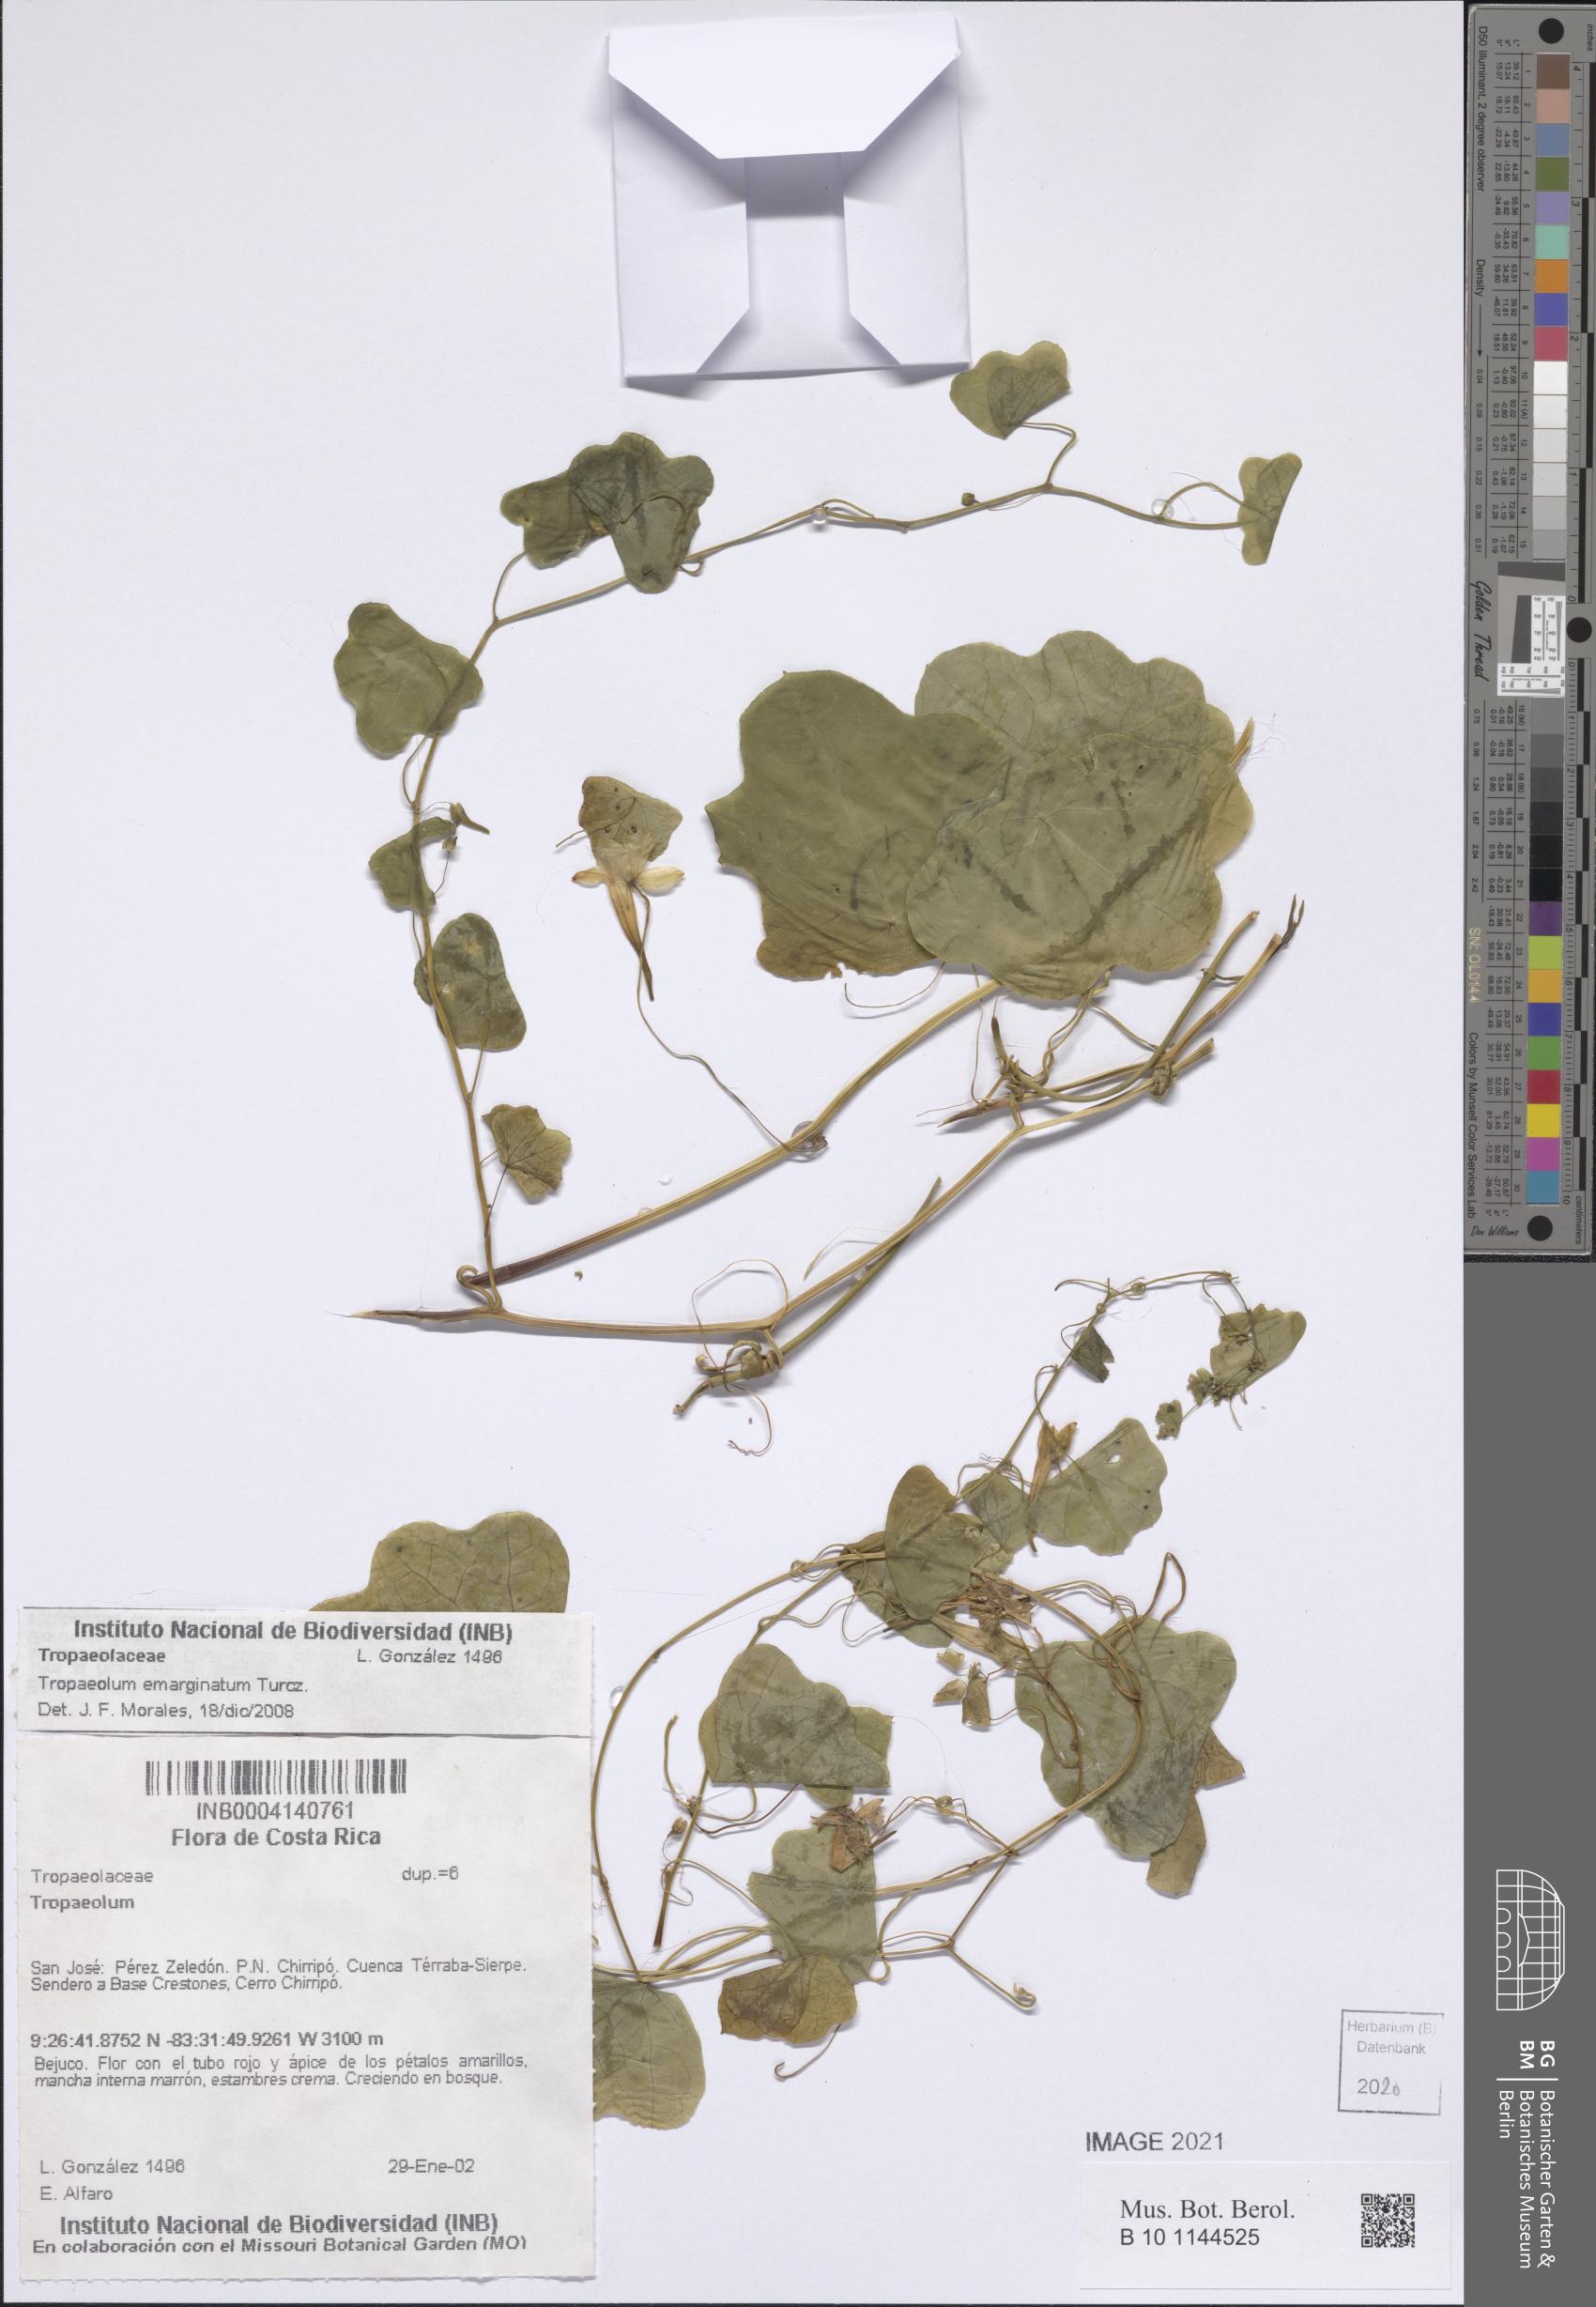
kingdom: Plantae
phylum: Tracheophyta
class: Magnoliopsida
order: Brassicales
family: Tropaeolaceae
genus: Tropaeolum
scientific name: Tropaeolum emarginatum
